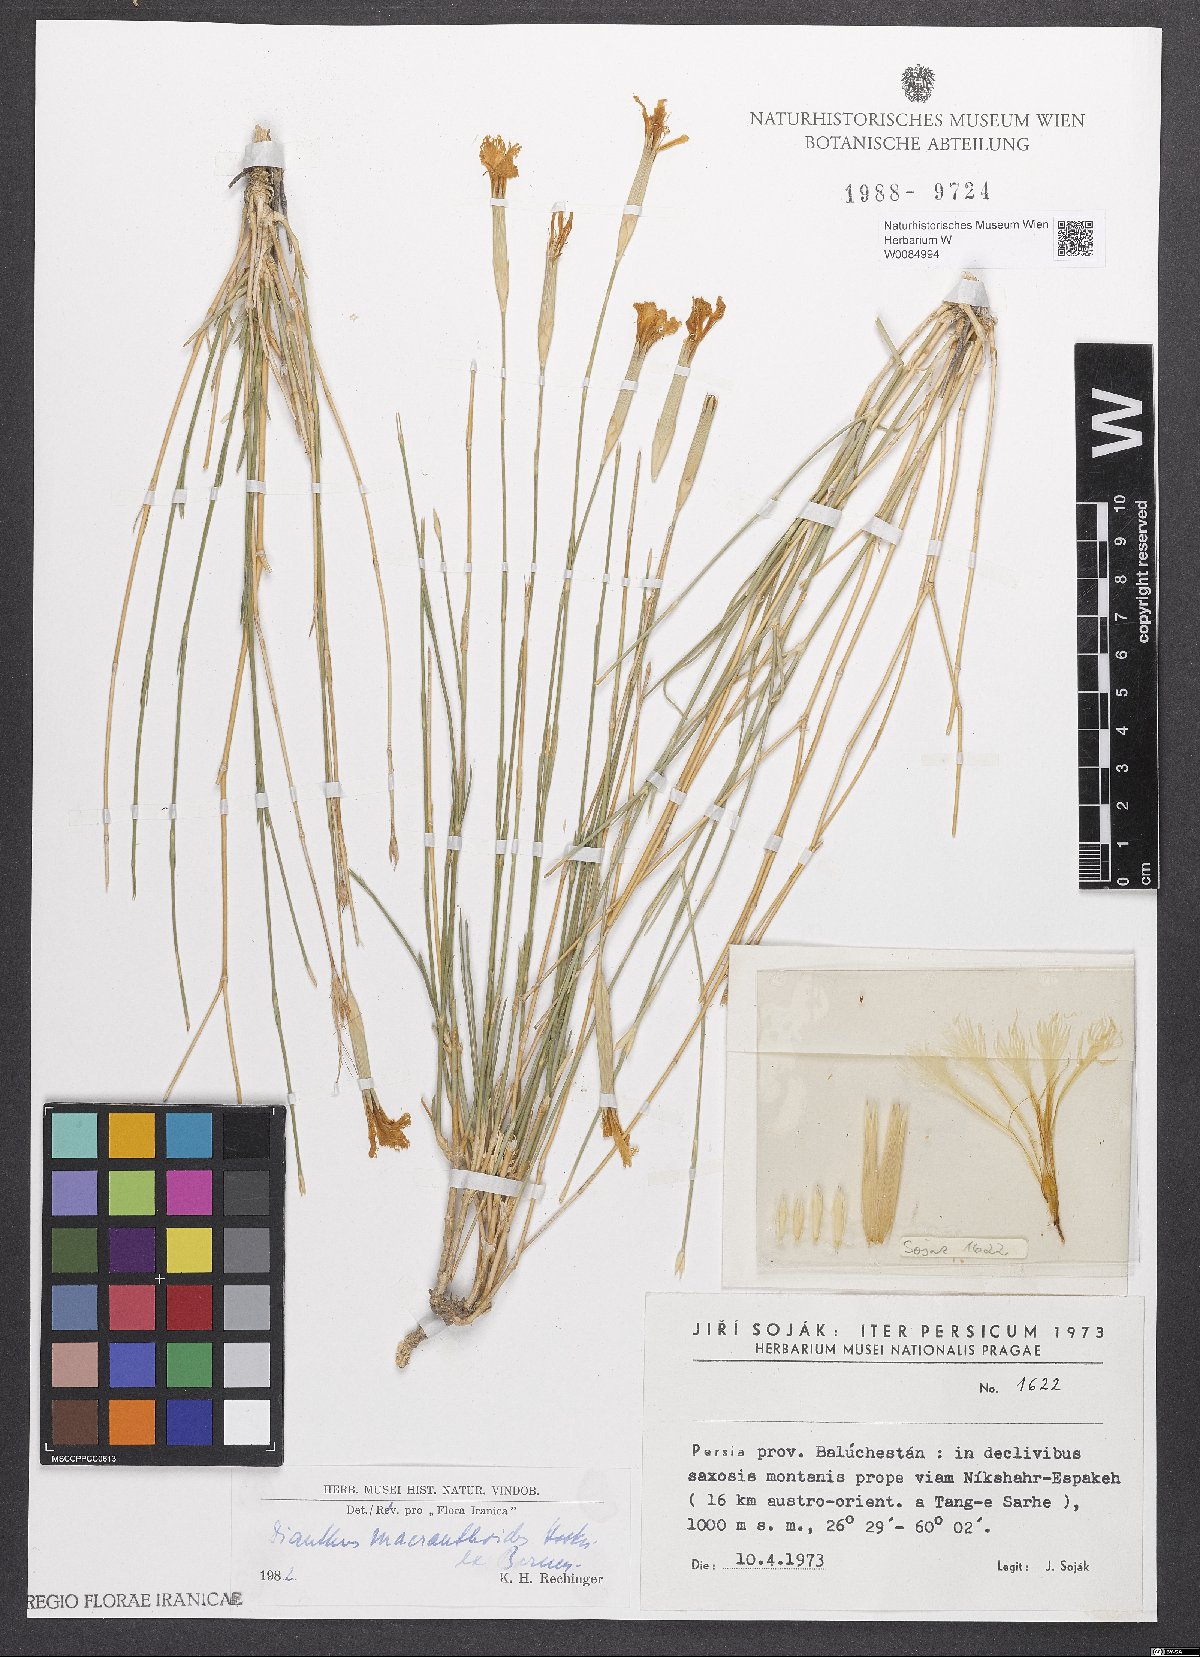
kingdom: Plantae
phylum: Tracheophyta
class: Magnoliopsida
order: Caryophyllales
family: Caryophyllaceae
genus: Dianthus
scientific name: Dianthus macranthoides
